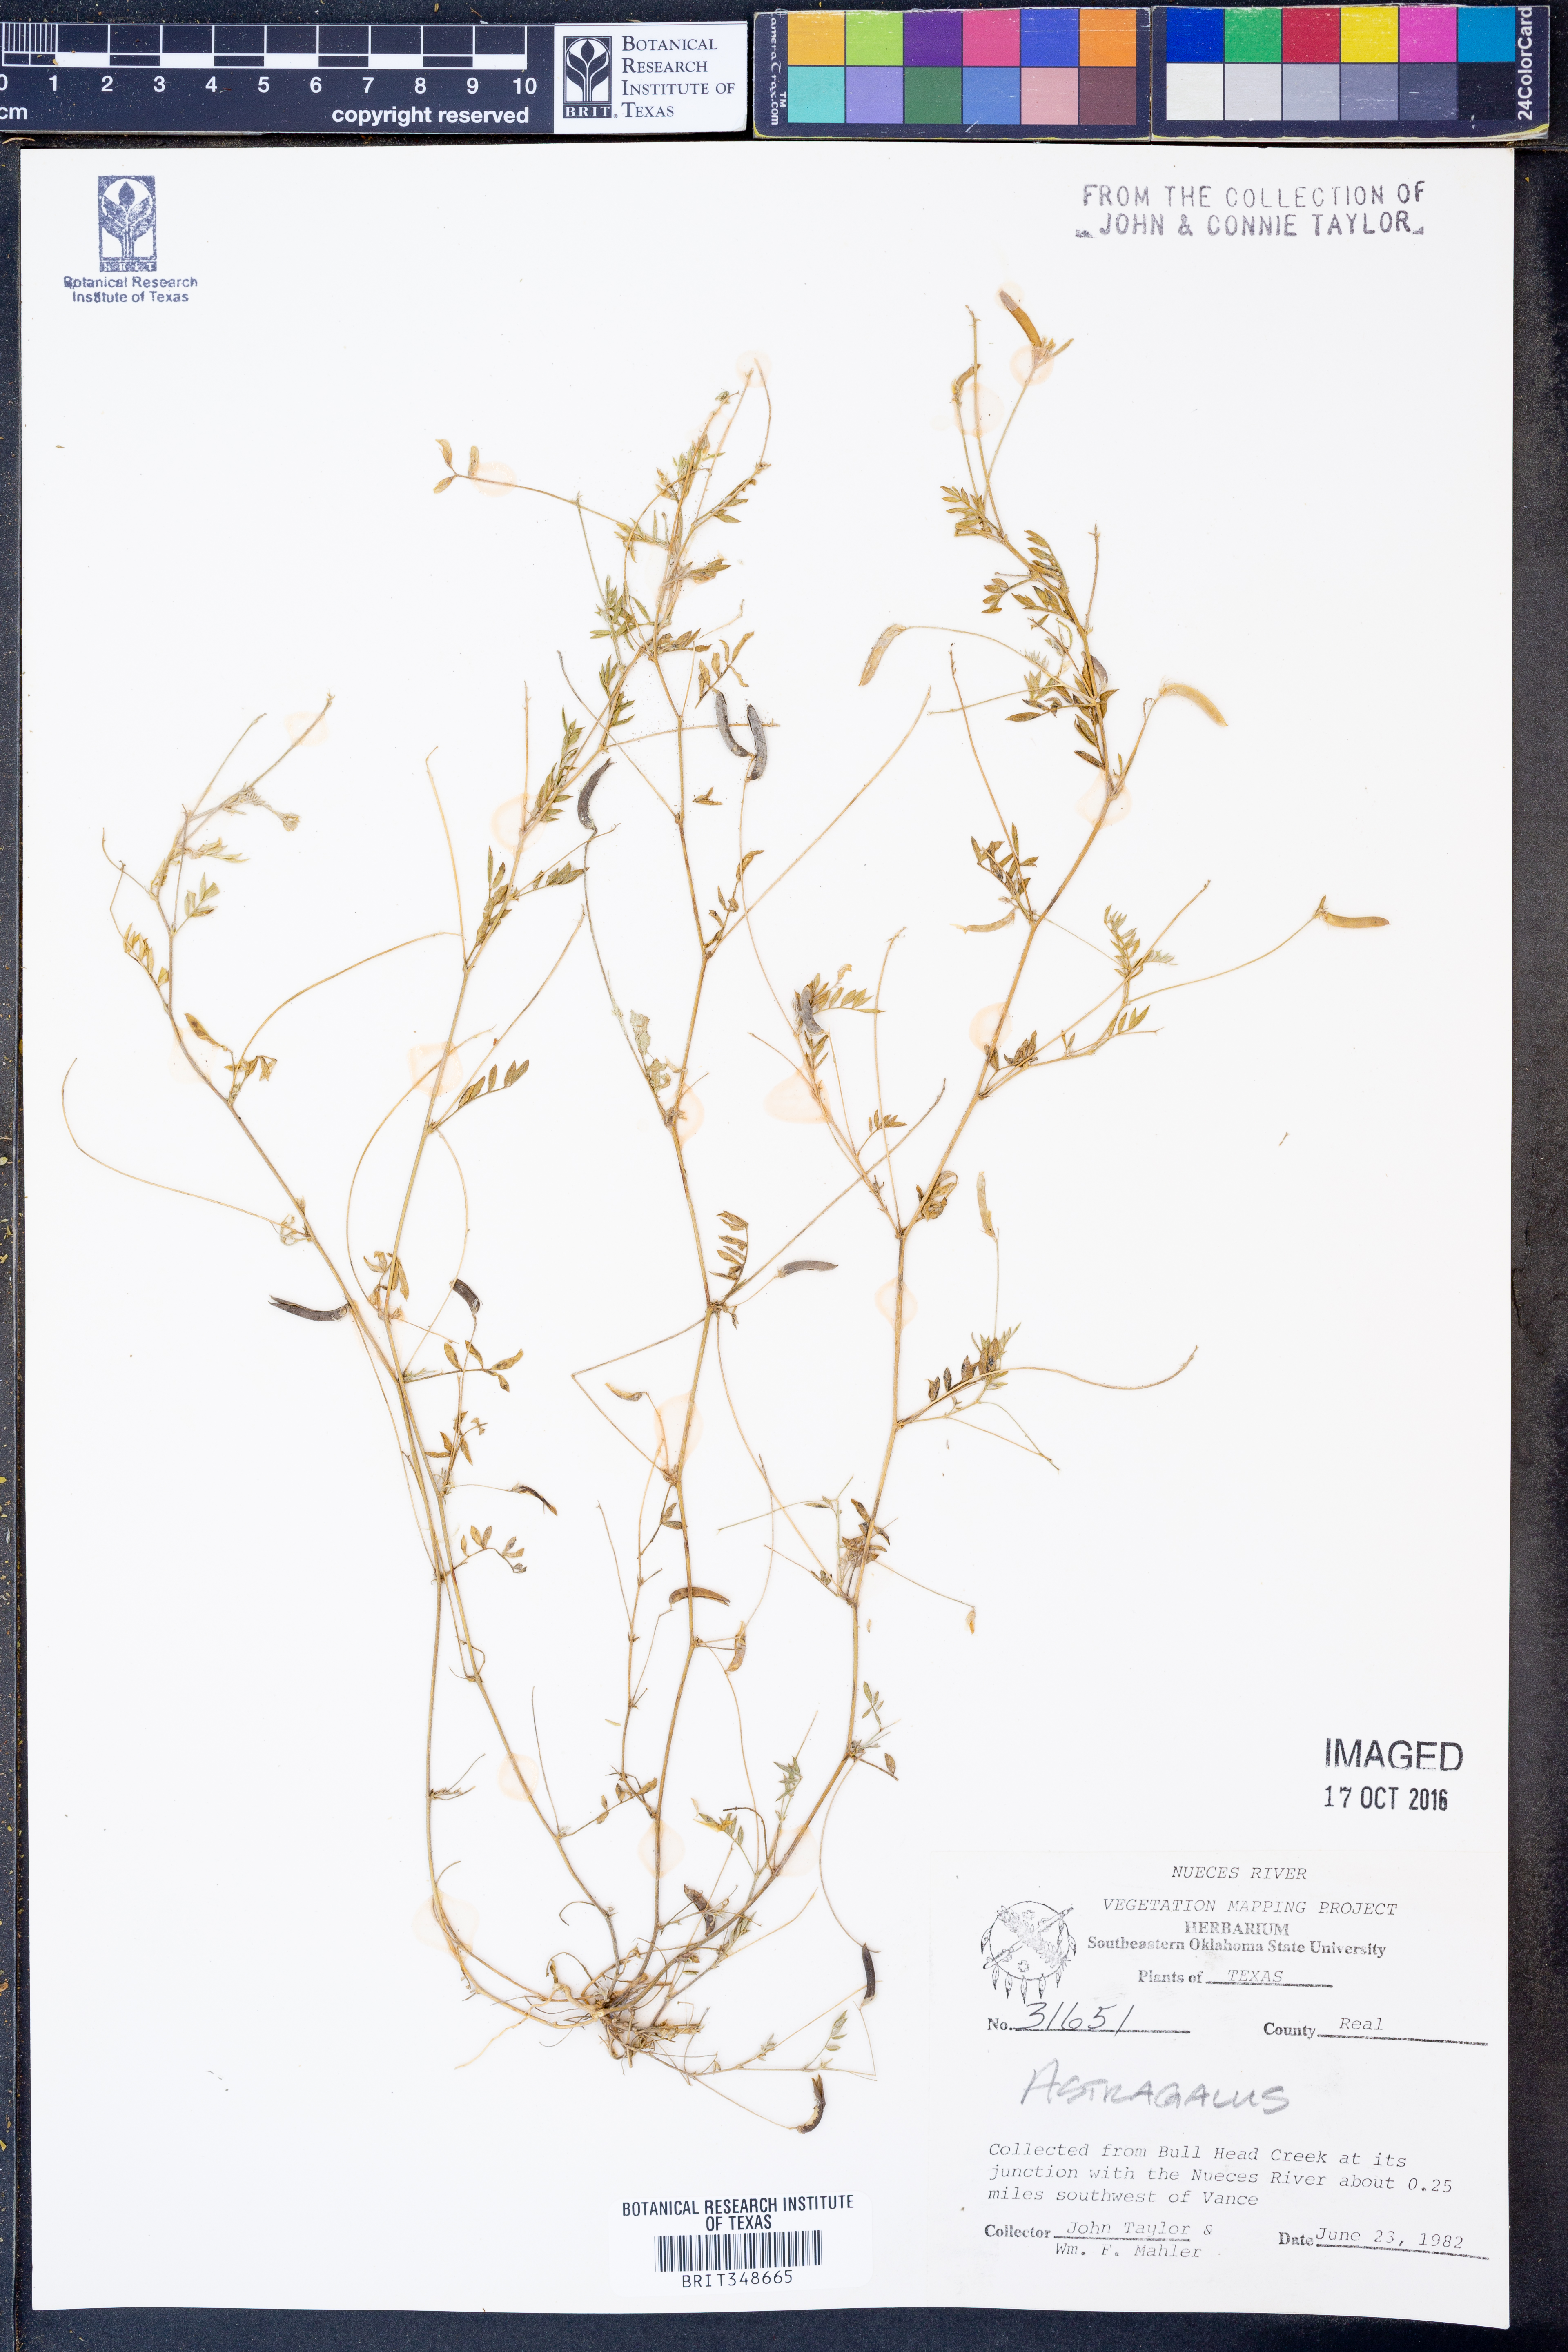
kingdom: Plantae
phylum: Tracheophyta
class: Magnoliopsida
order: Fabales
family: Fabaceae
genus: Astragalus
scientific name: Astragalus
